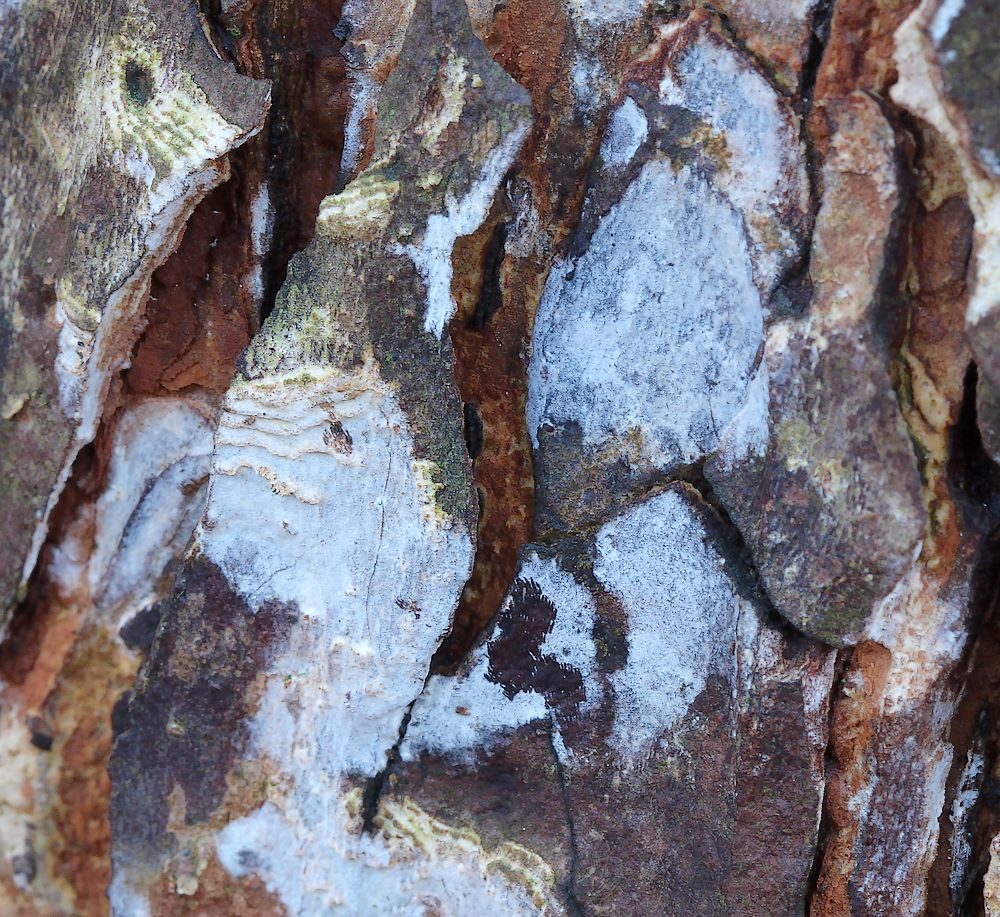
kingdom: Fungi
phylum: Basidiomycota
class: Agaricomycetes
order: Agaricales
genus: Dendrothele
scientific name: Dendrothele acerina
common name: navr-kalkplet
